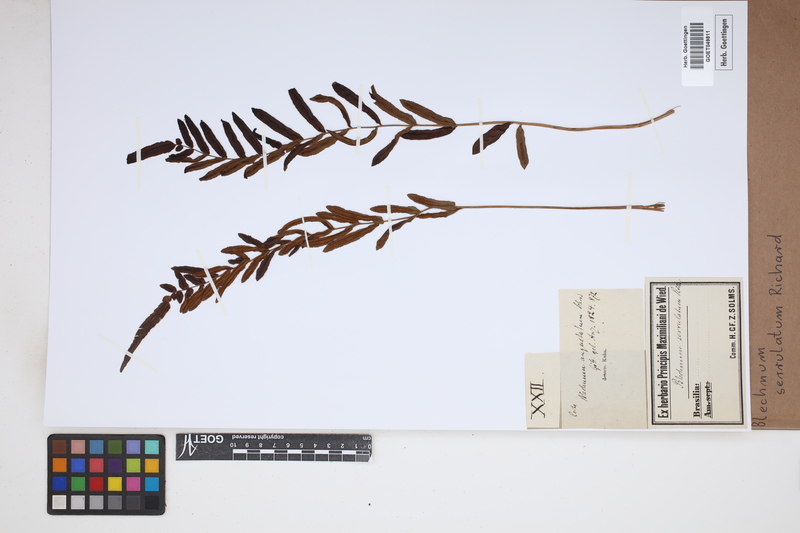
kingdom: Plantae
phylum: Tracheophyta
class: Polypodiopsida
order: Polypodiales
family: Blechnaceae
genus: Telmatoblechnum
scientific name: Telmatoblechnum serrulatum
